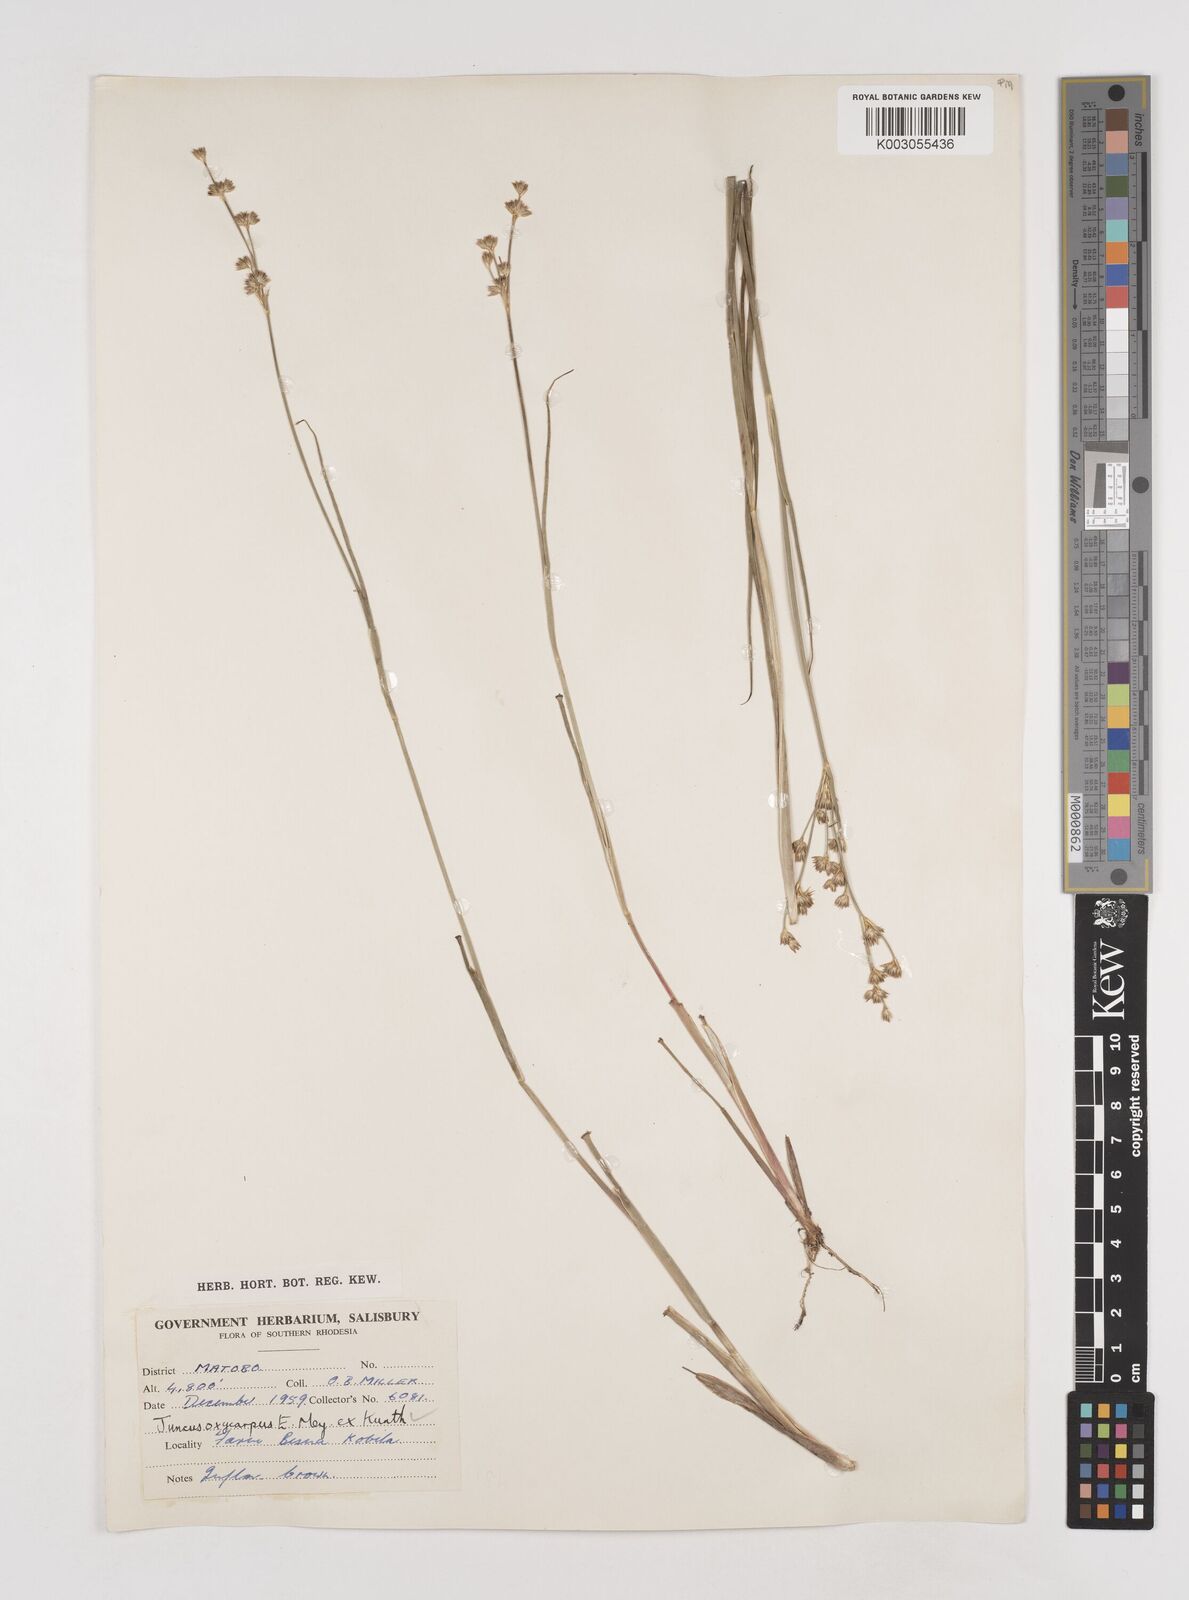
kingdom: Plantae
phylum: Tracheophyta
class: Liliopsida
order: Poales
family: Juncaceae
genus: Juncus
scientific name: Juncus oxycarpus
